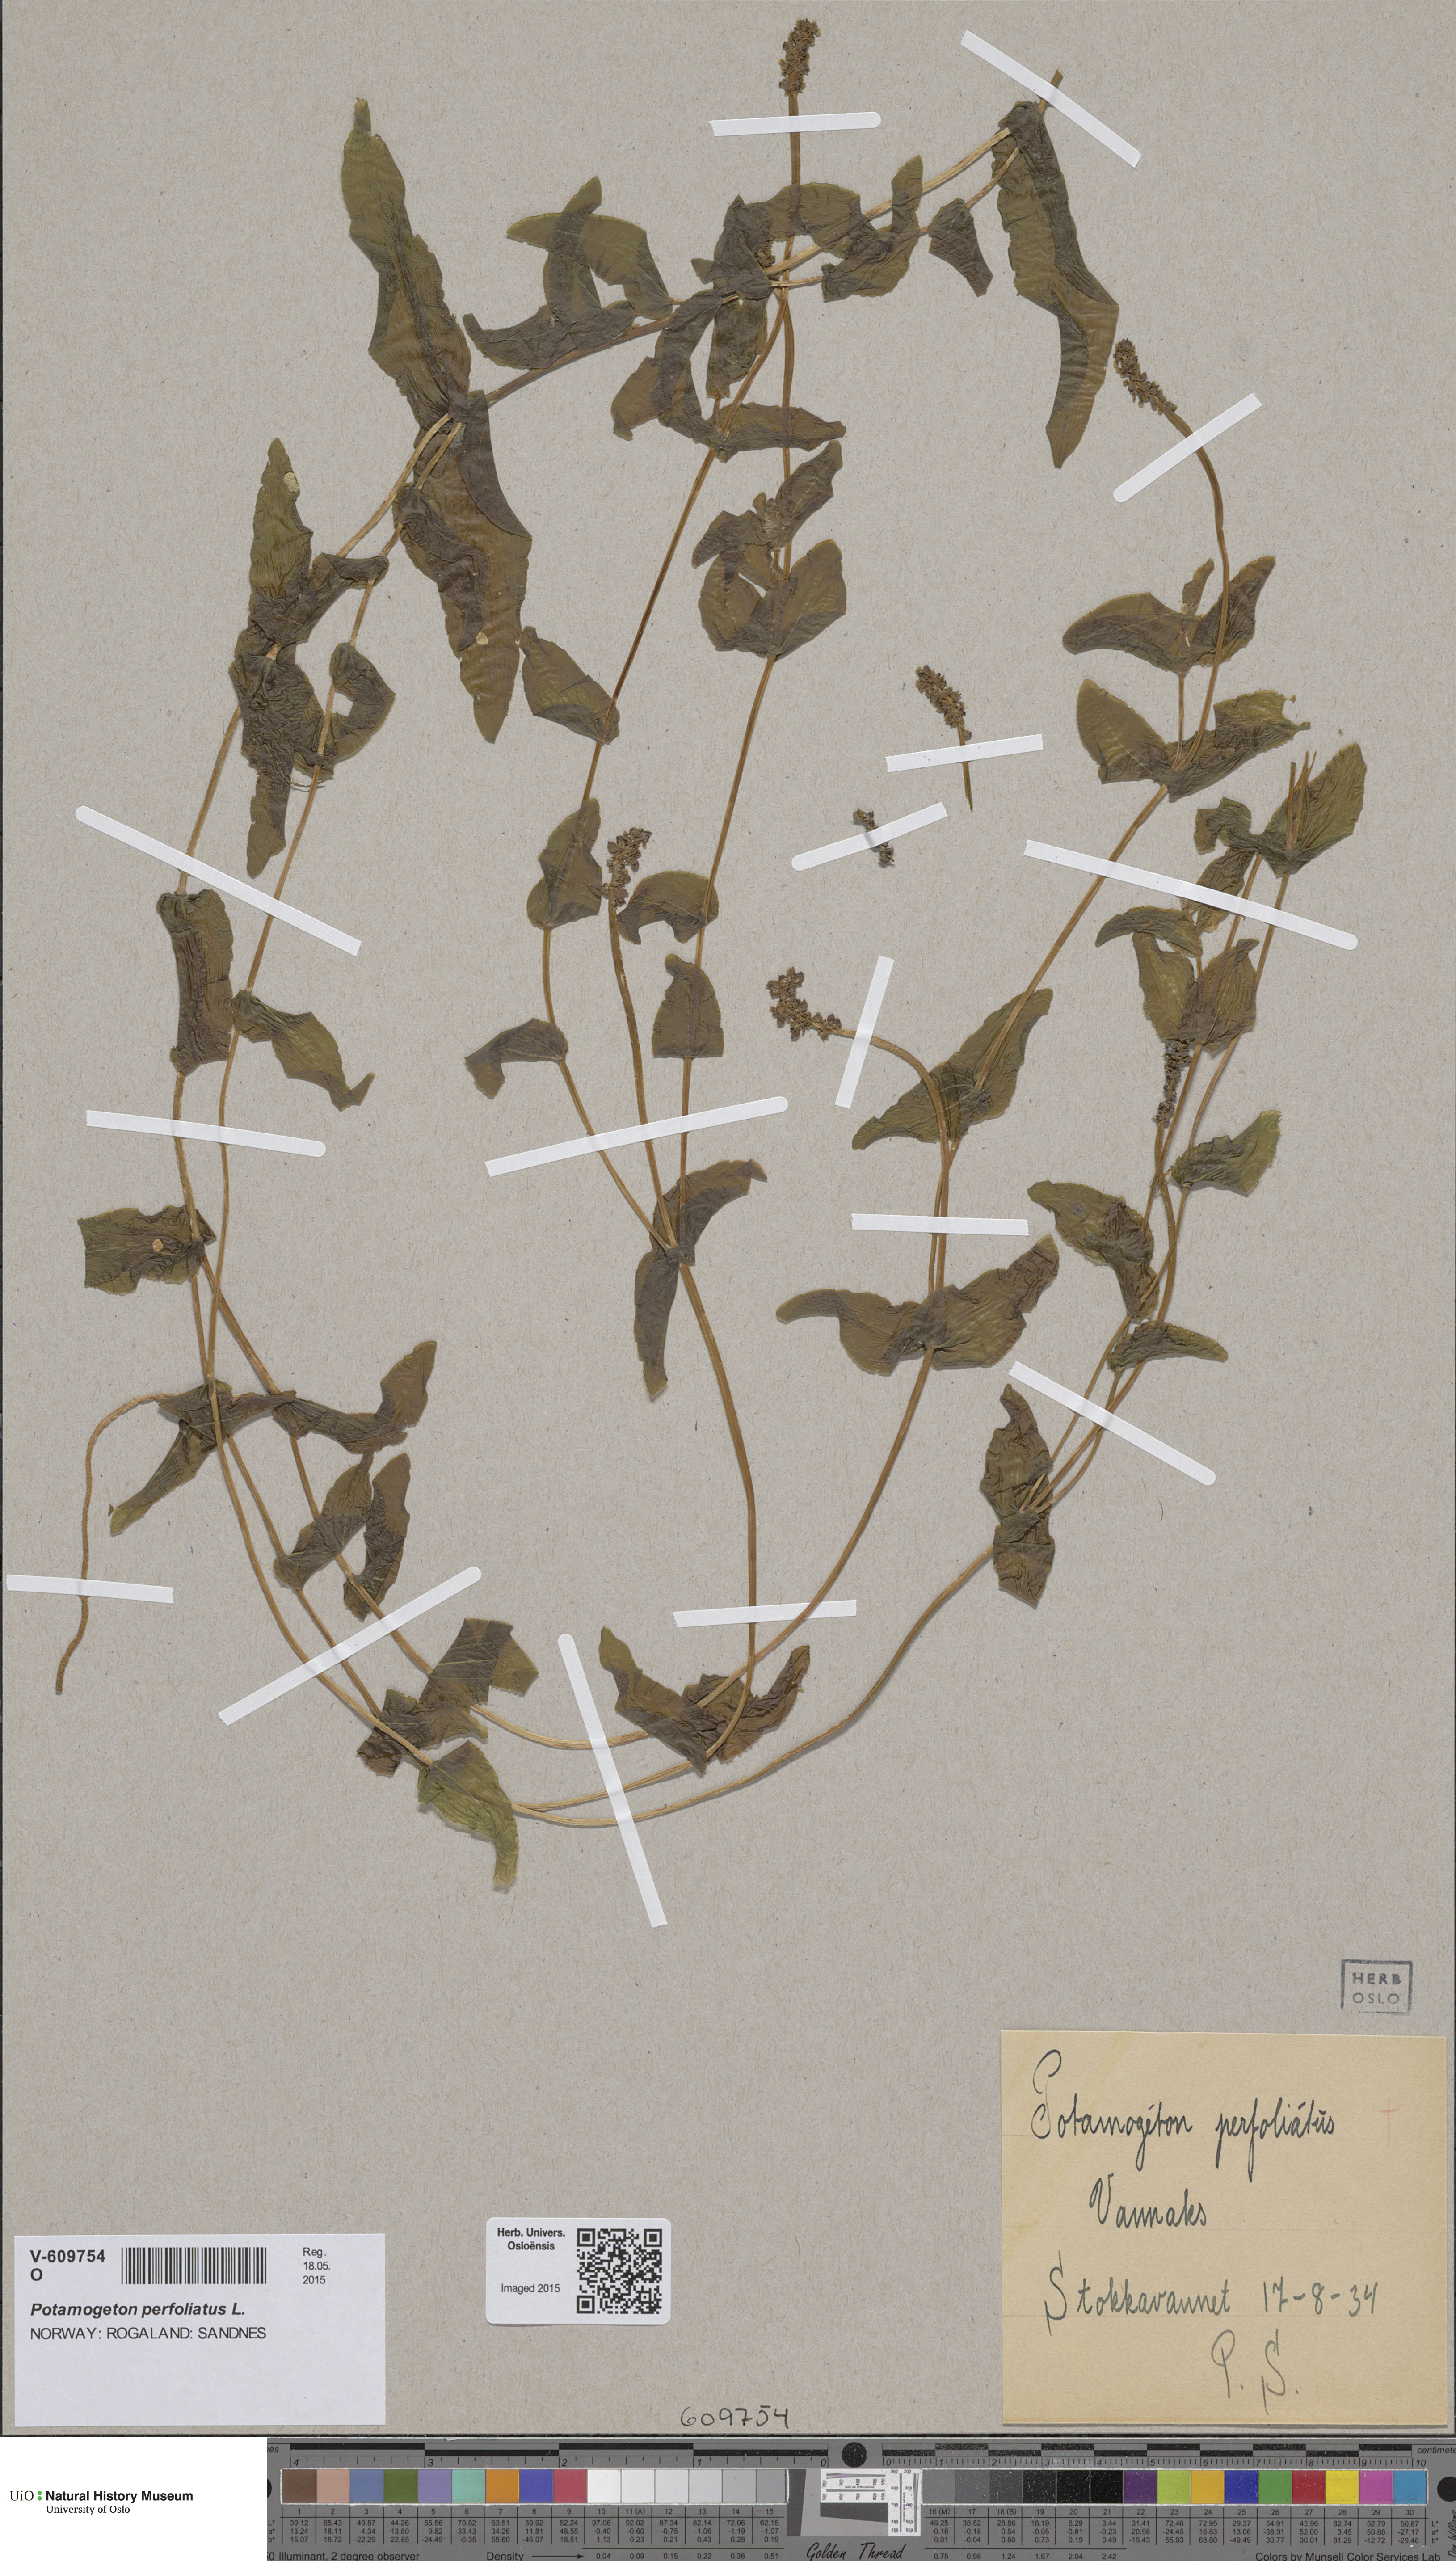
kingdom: Plantae
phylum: Tracheophyta
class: Liliopsida
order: Alismatales
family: Potamogetonaceae
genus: Potamogeton
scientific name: Potamogeton perfoliatus
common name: Perfoliate pondweed
